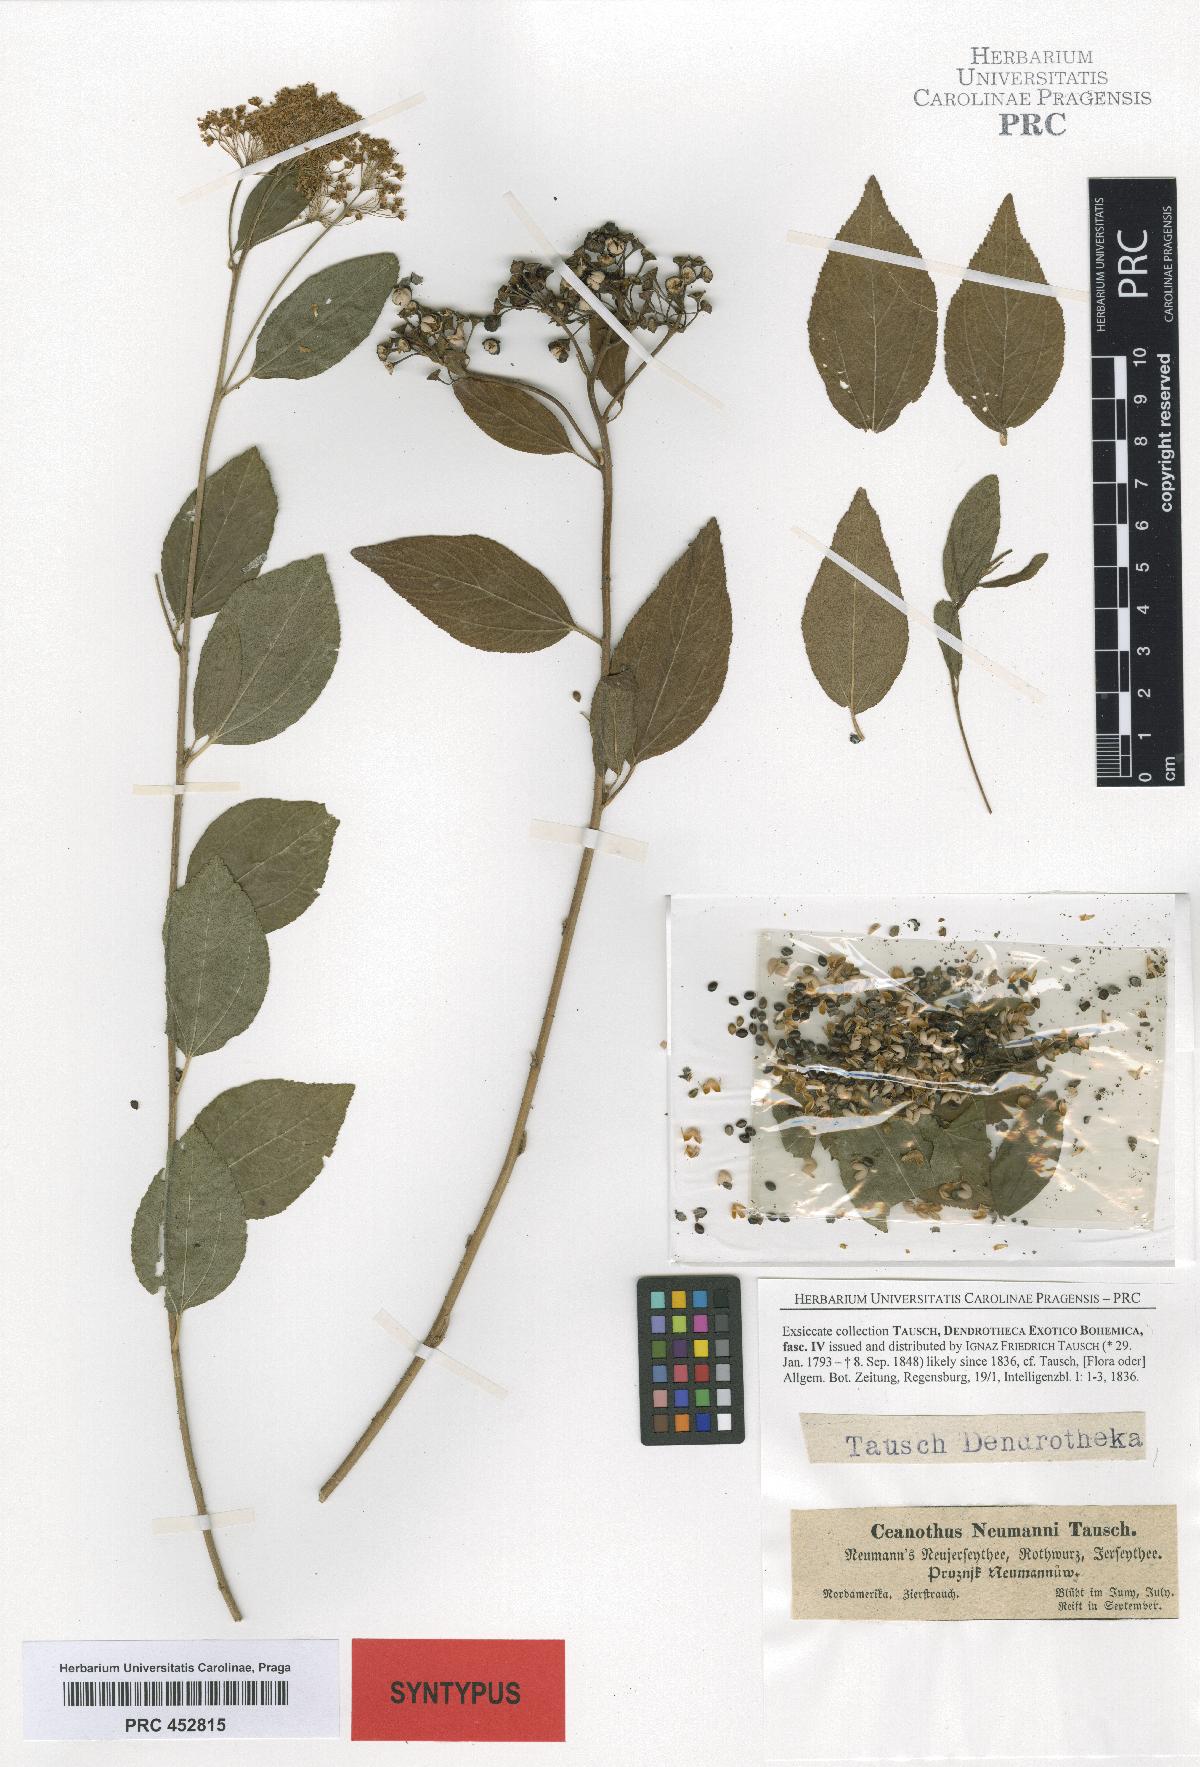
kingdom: Plantae
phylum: Tracheophyta
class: Magnoliopsida
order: Rosales
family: Rhamnaceae
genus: Ceanothus
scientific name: Ceanothus neumannii
